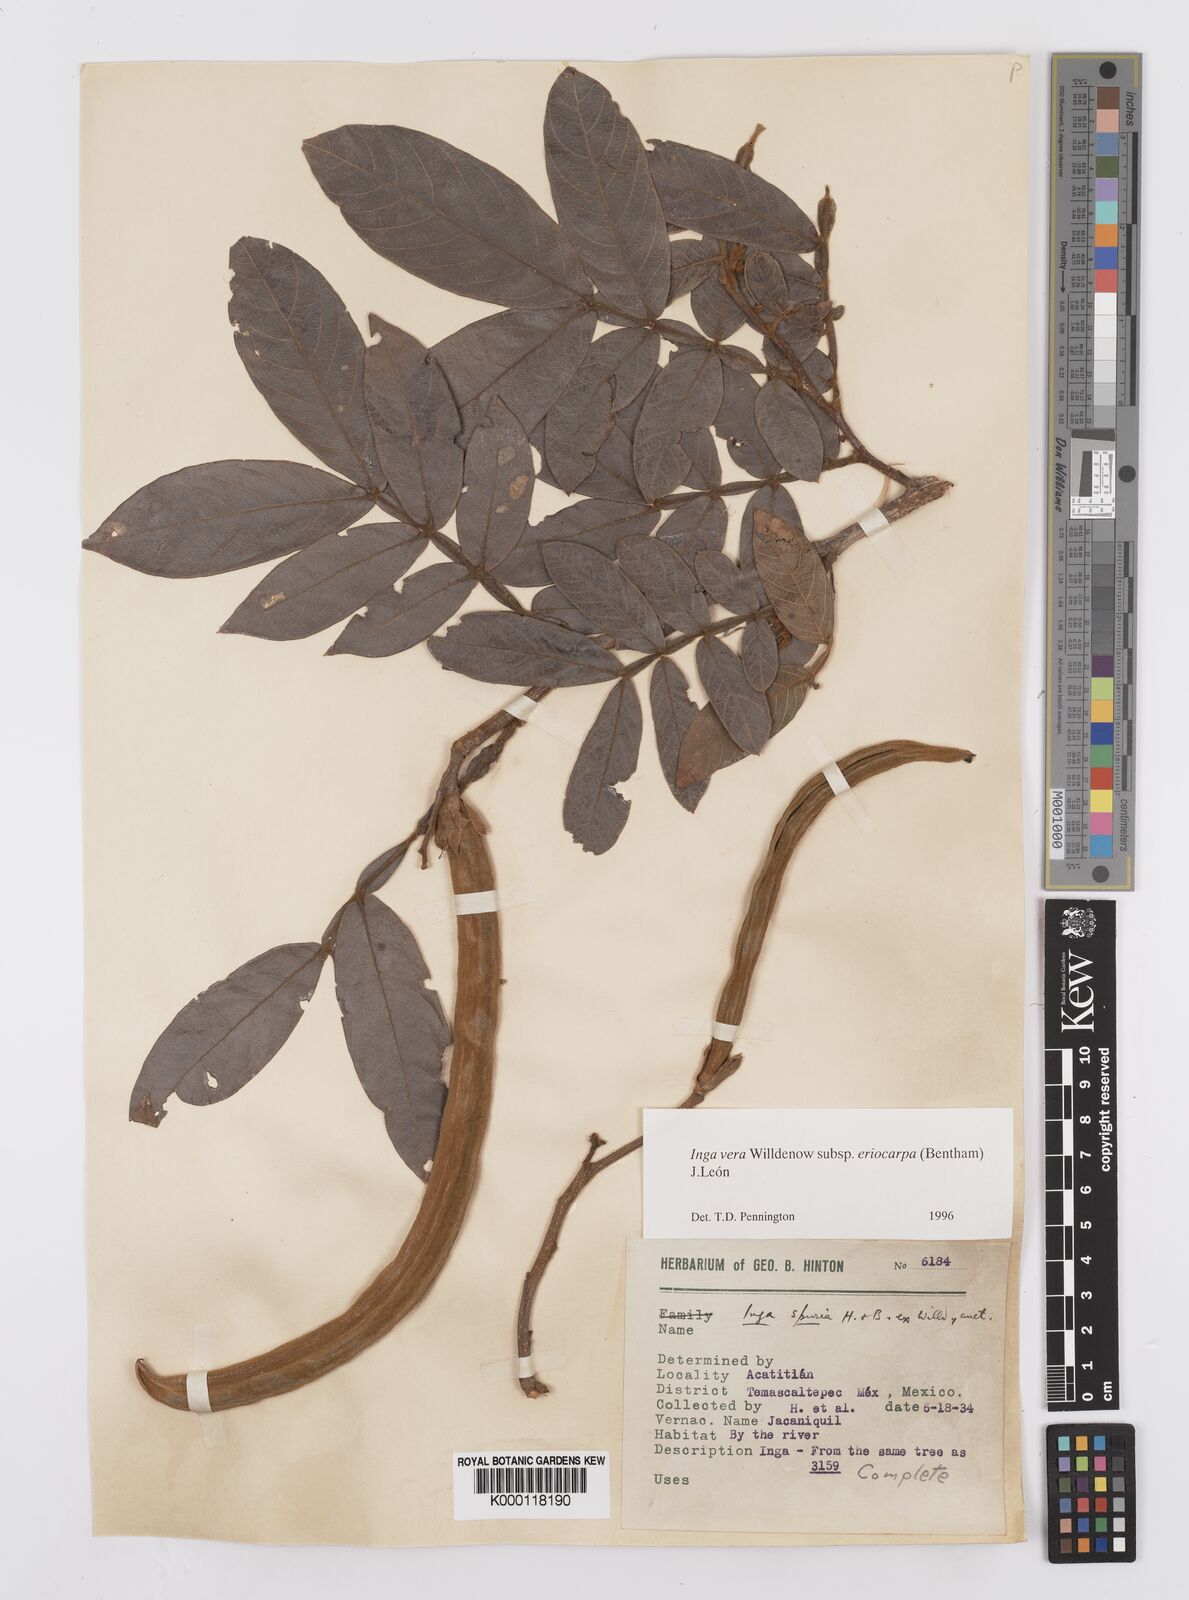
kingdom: Plantae
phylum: Tracheophyta
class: Magnoliopsida
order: Fabales
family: Fabaceae
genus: Inga
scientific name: Inga vera
